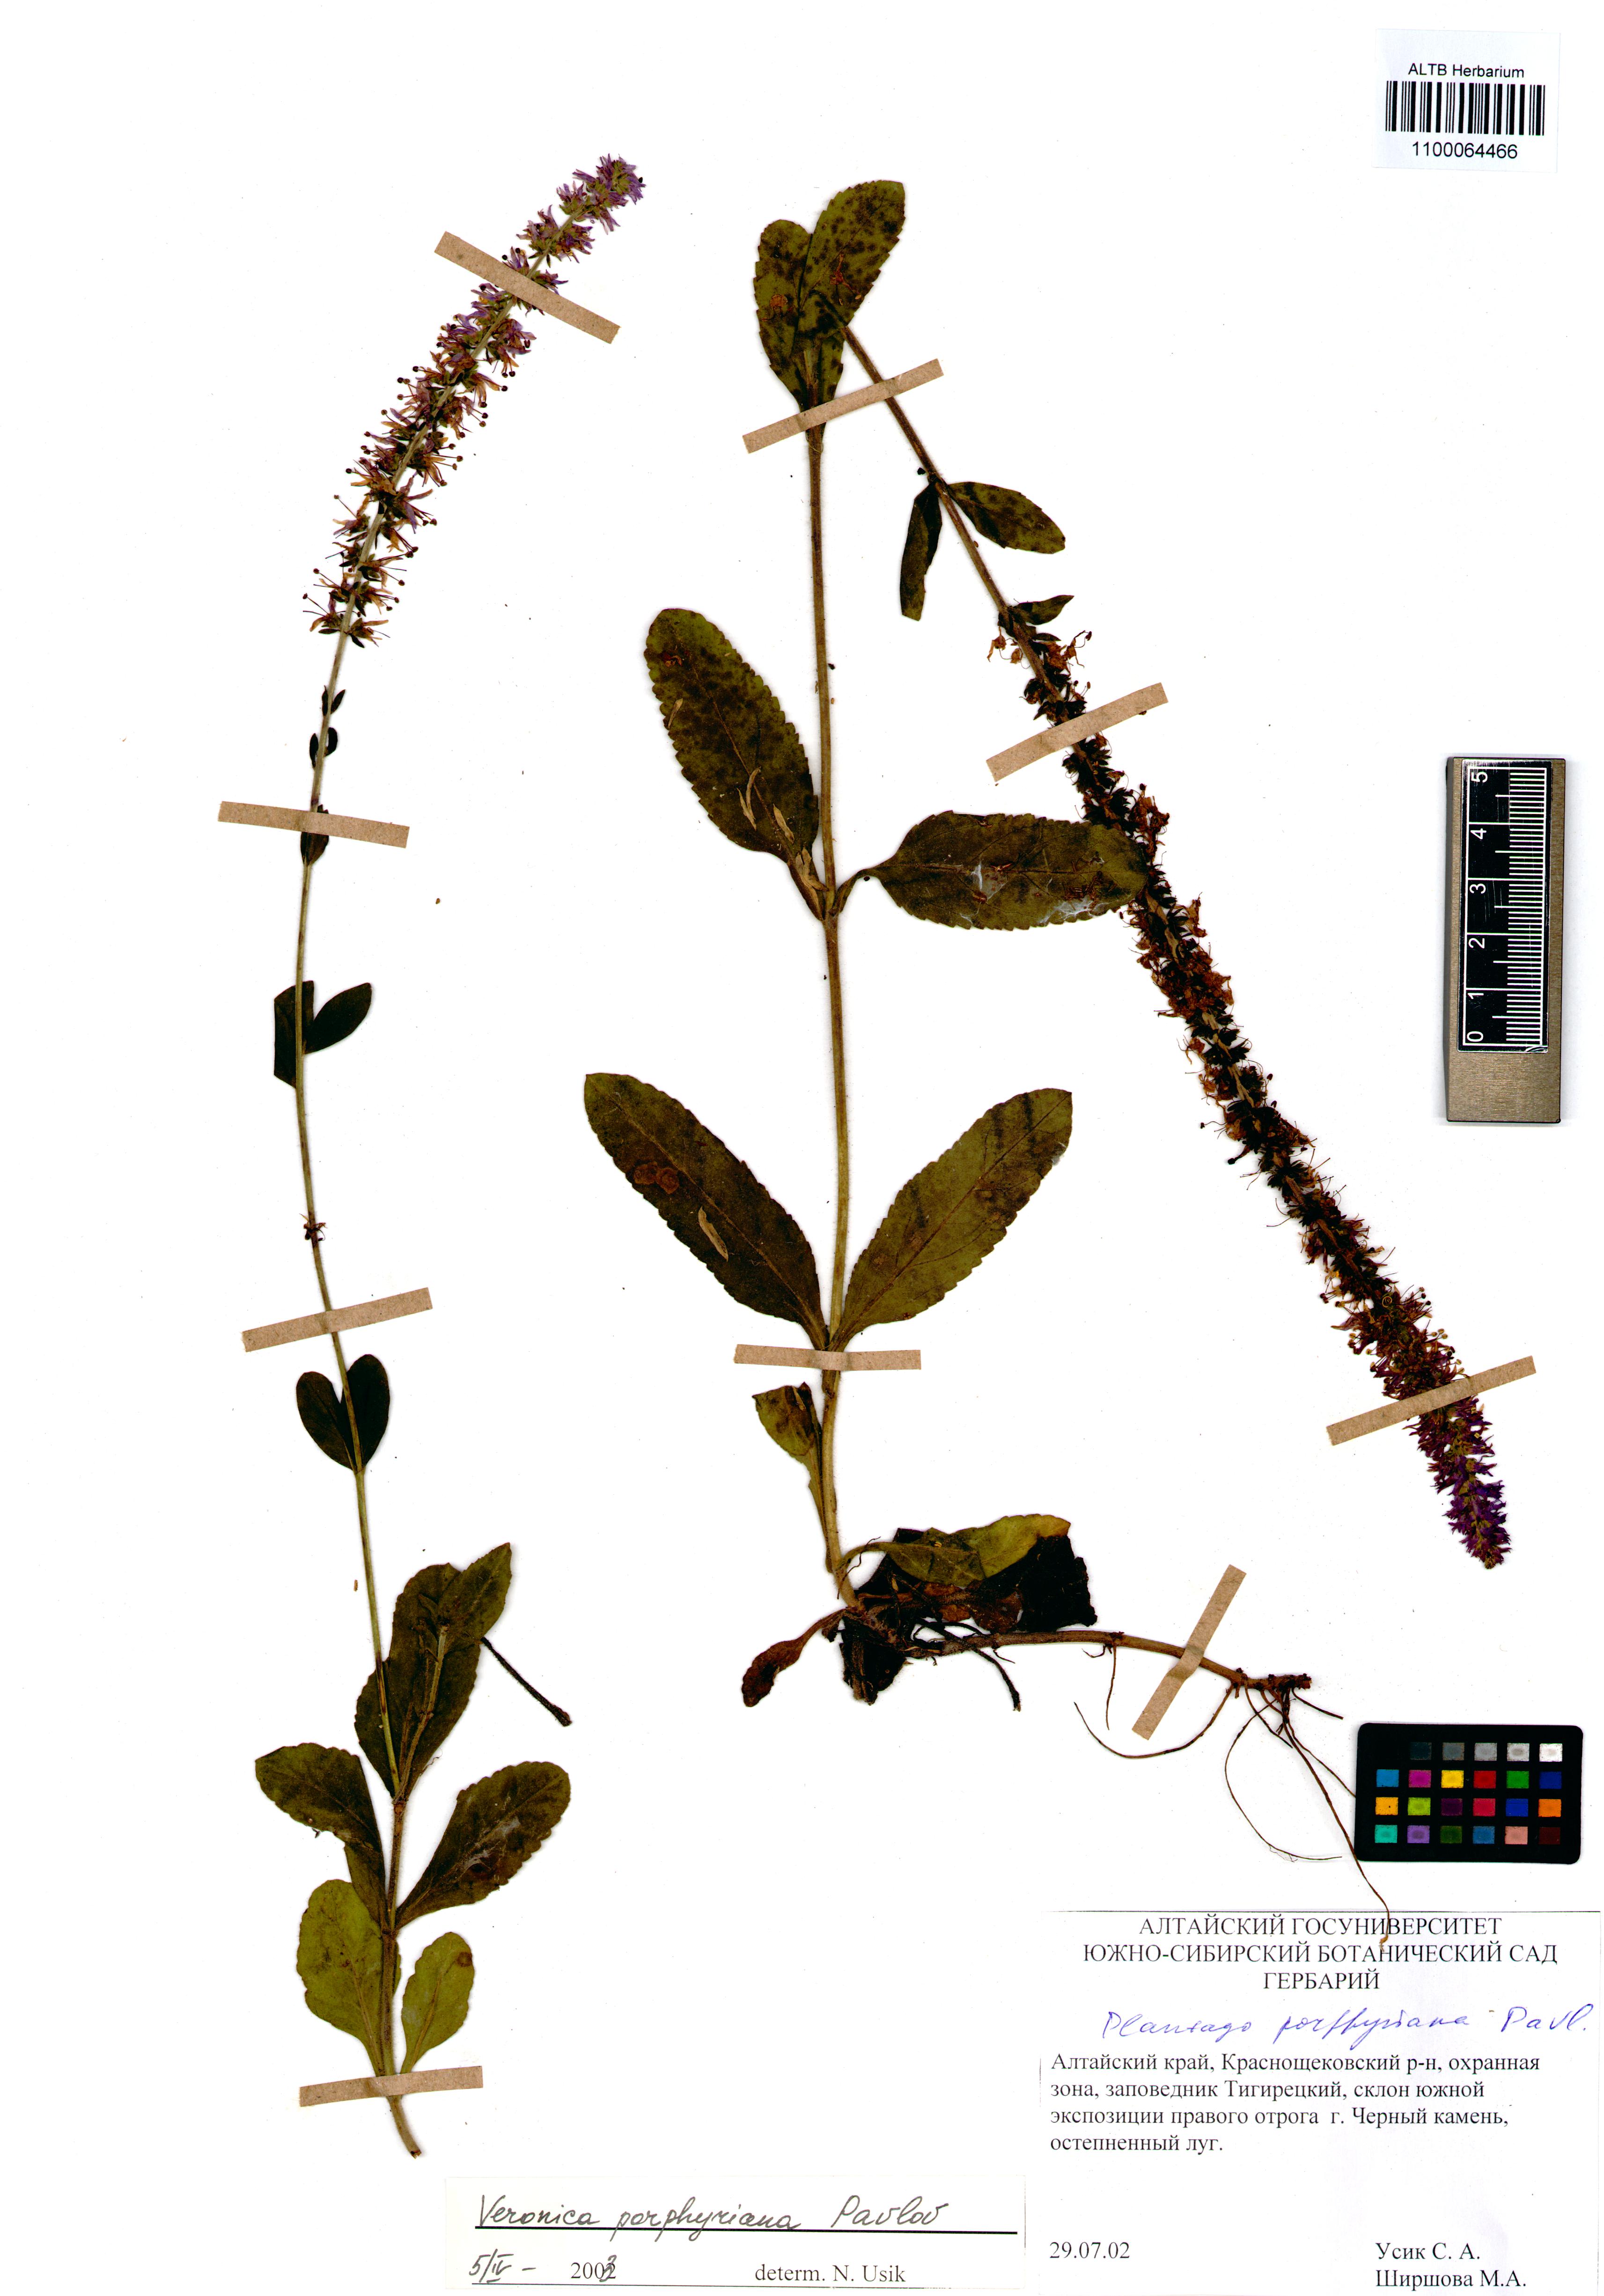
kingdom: Plantae
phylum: Tracheophyta
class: Magnoliopsida
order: Lamiales
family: Plantaginaceae
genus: Veronica
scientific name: Veronica porphyriana
